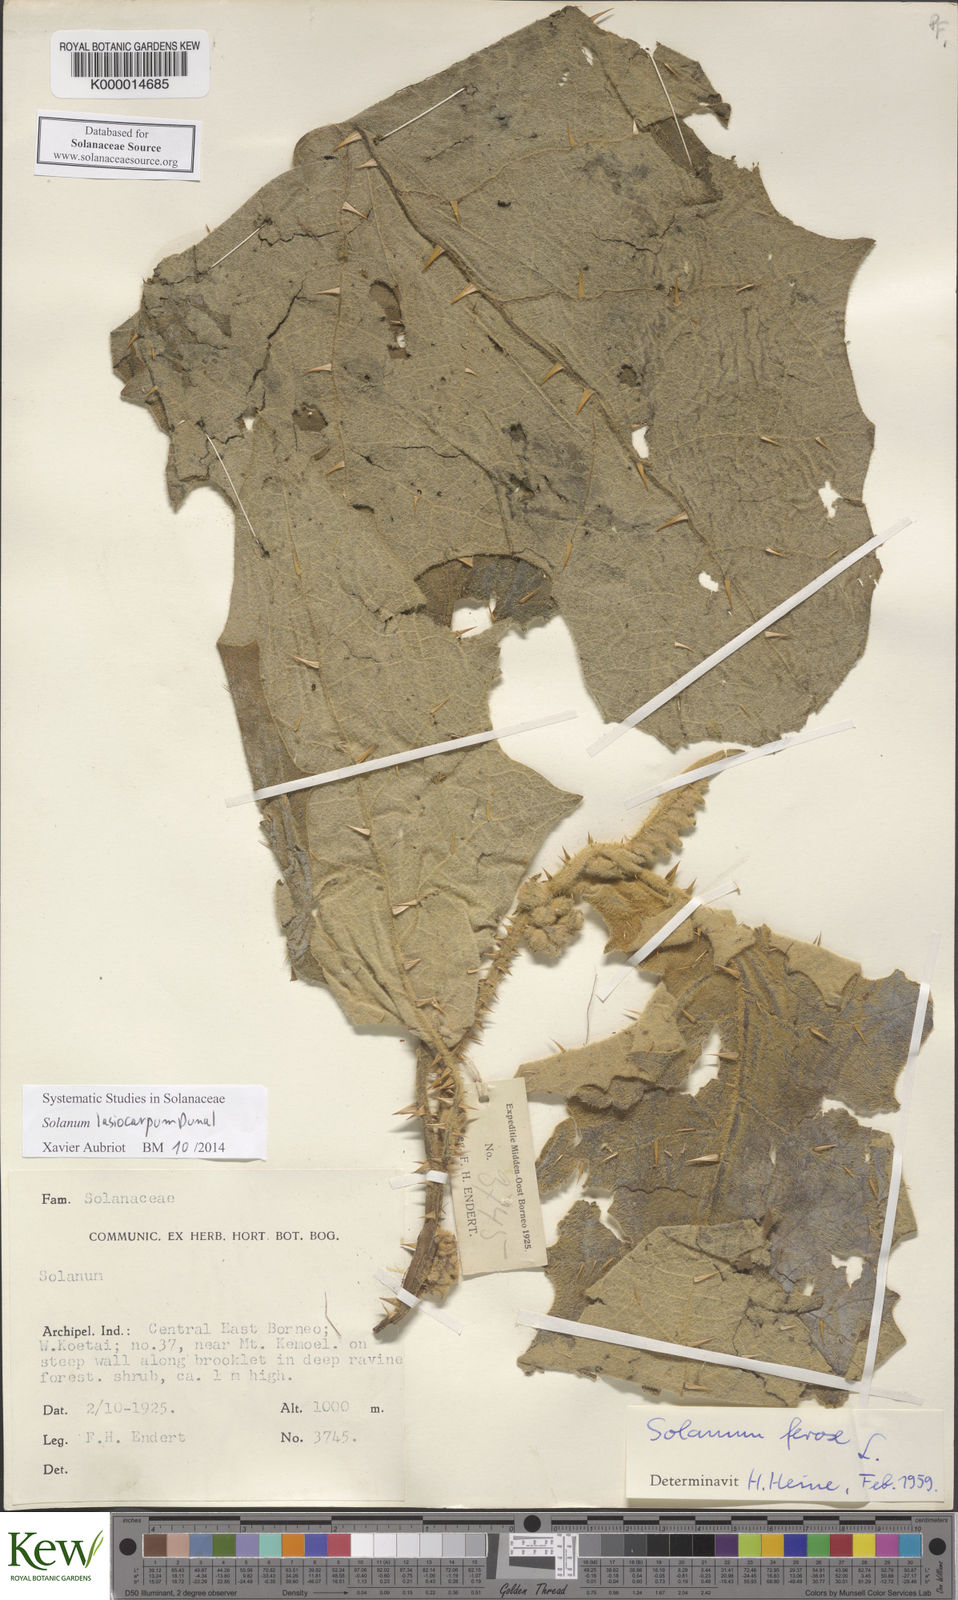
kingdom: Plantae
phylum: Tracheophyta
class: Magnoliopsida
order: Solanales
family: Solanaceae
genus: Solanum
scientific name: Solanum lasiocarpum
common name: Indian nightshade
